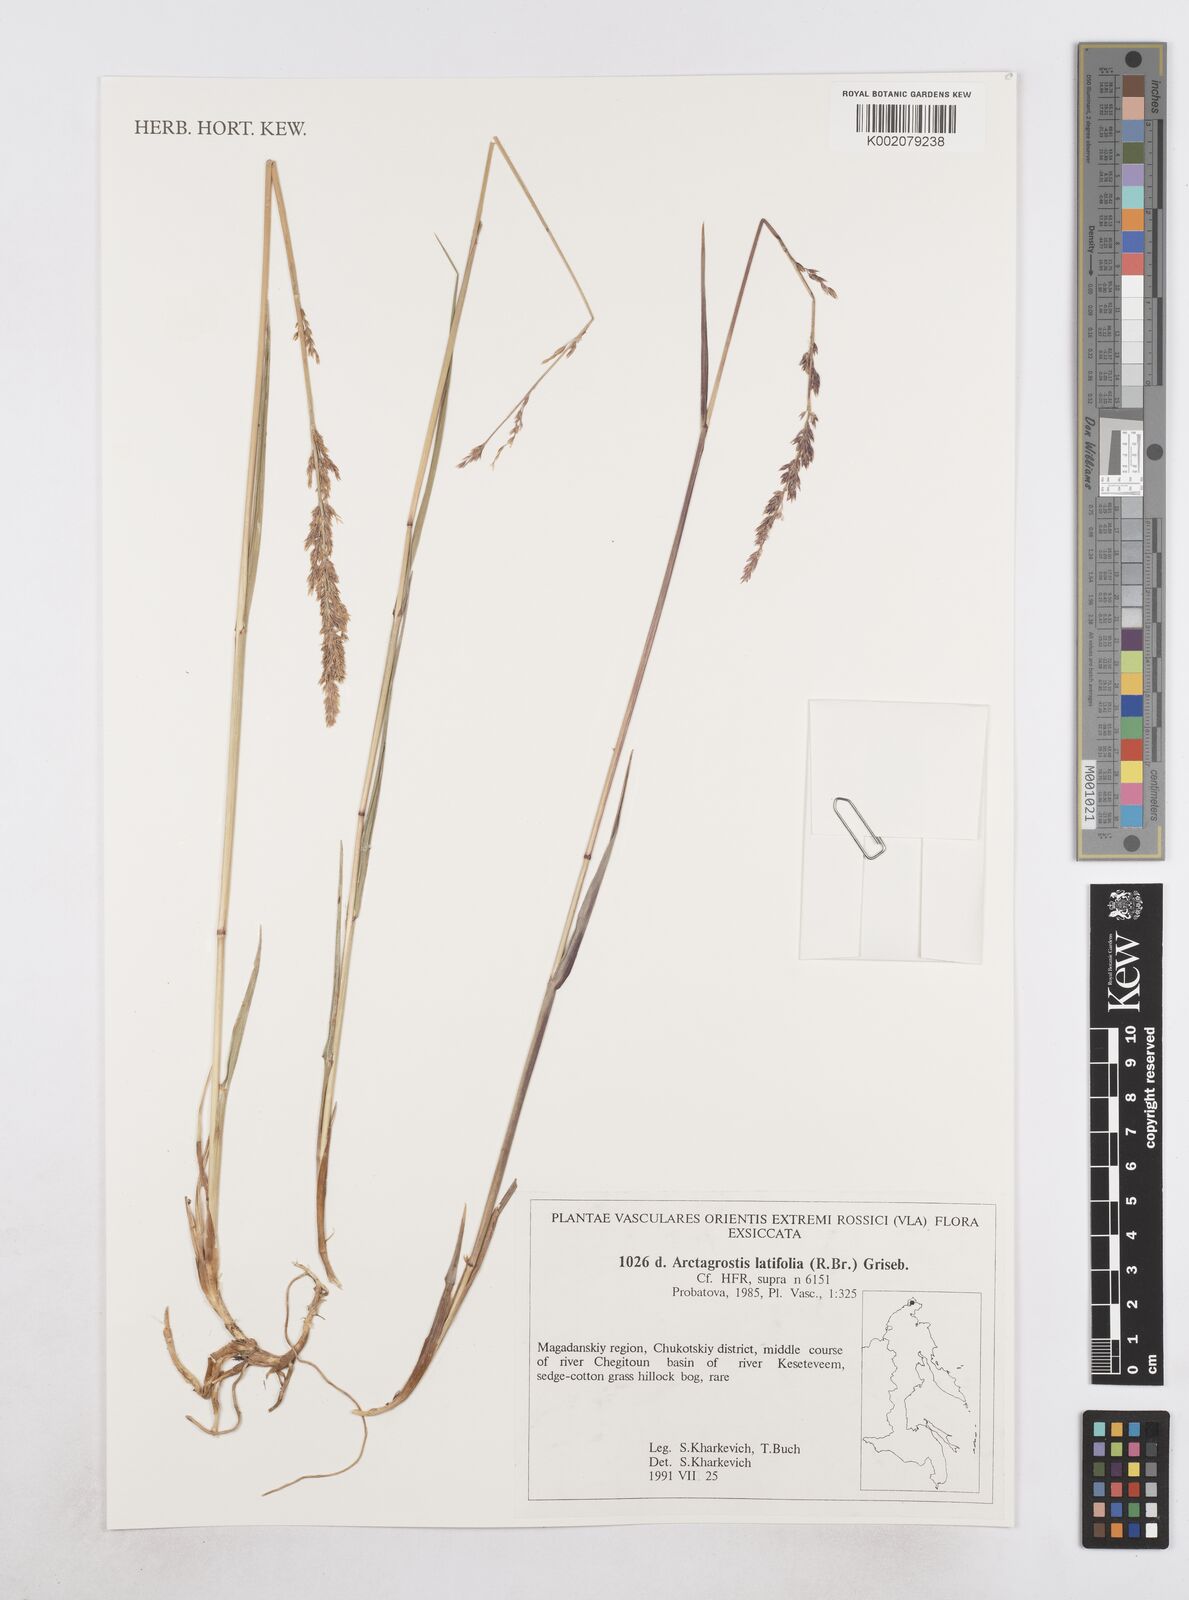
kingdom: Plantae
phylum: Tracheophyta
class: Liliopsida
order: Poales
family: Poaceae
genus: Arctagrostis
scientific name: Arctagrostis latifolia
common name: Arctic grass
